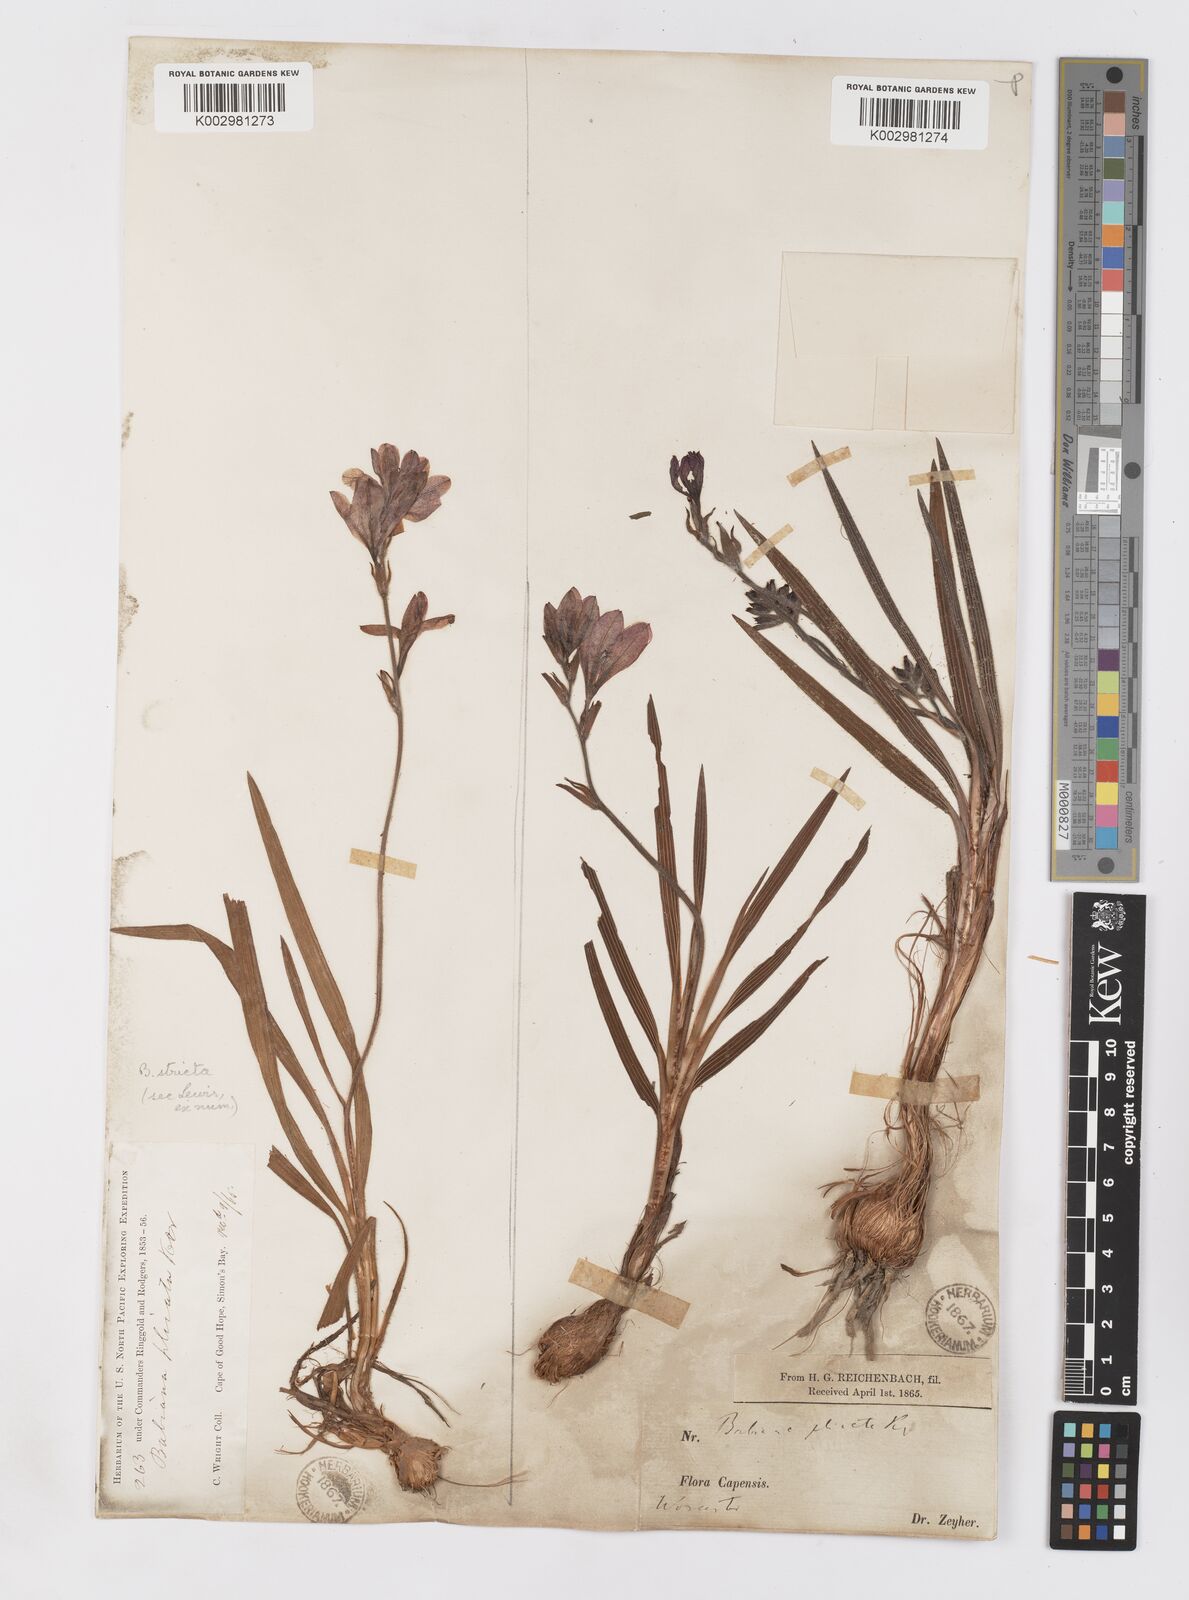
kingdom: Plantae
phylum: Tracheophyta
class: Liliopsida
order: Asparagales
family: Iridaceae
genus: Babiana
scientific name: Babiana regia
